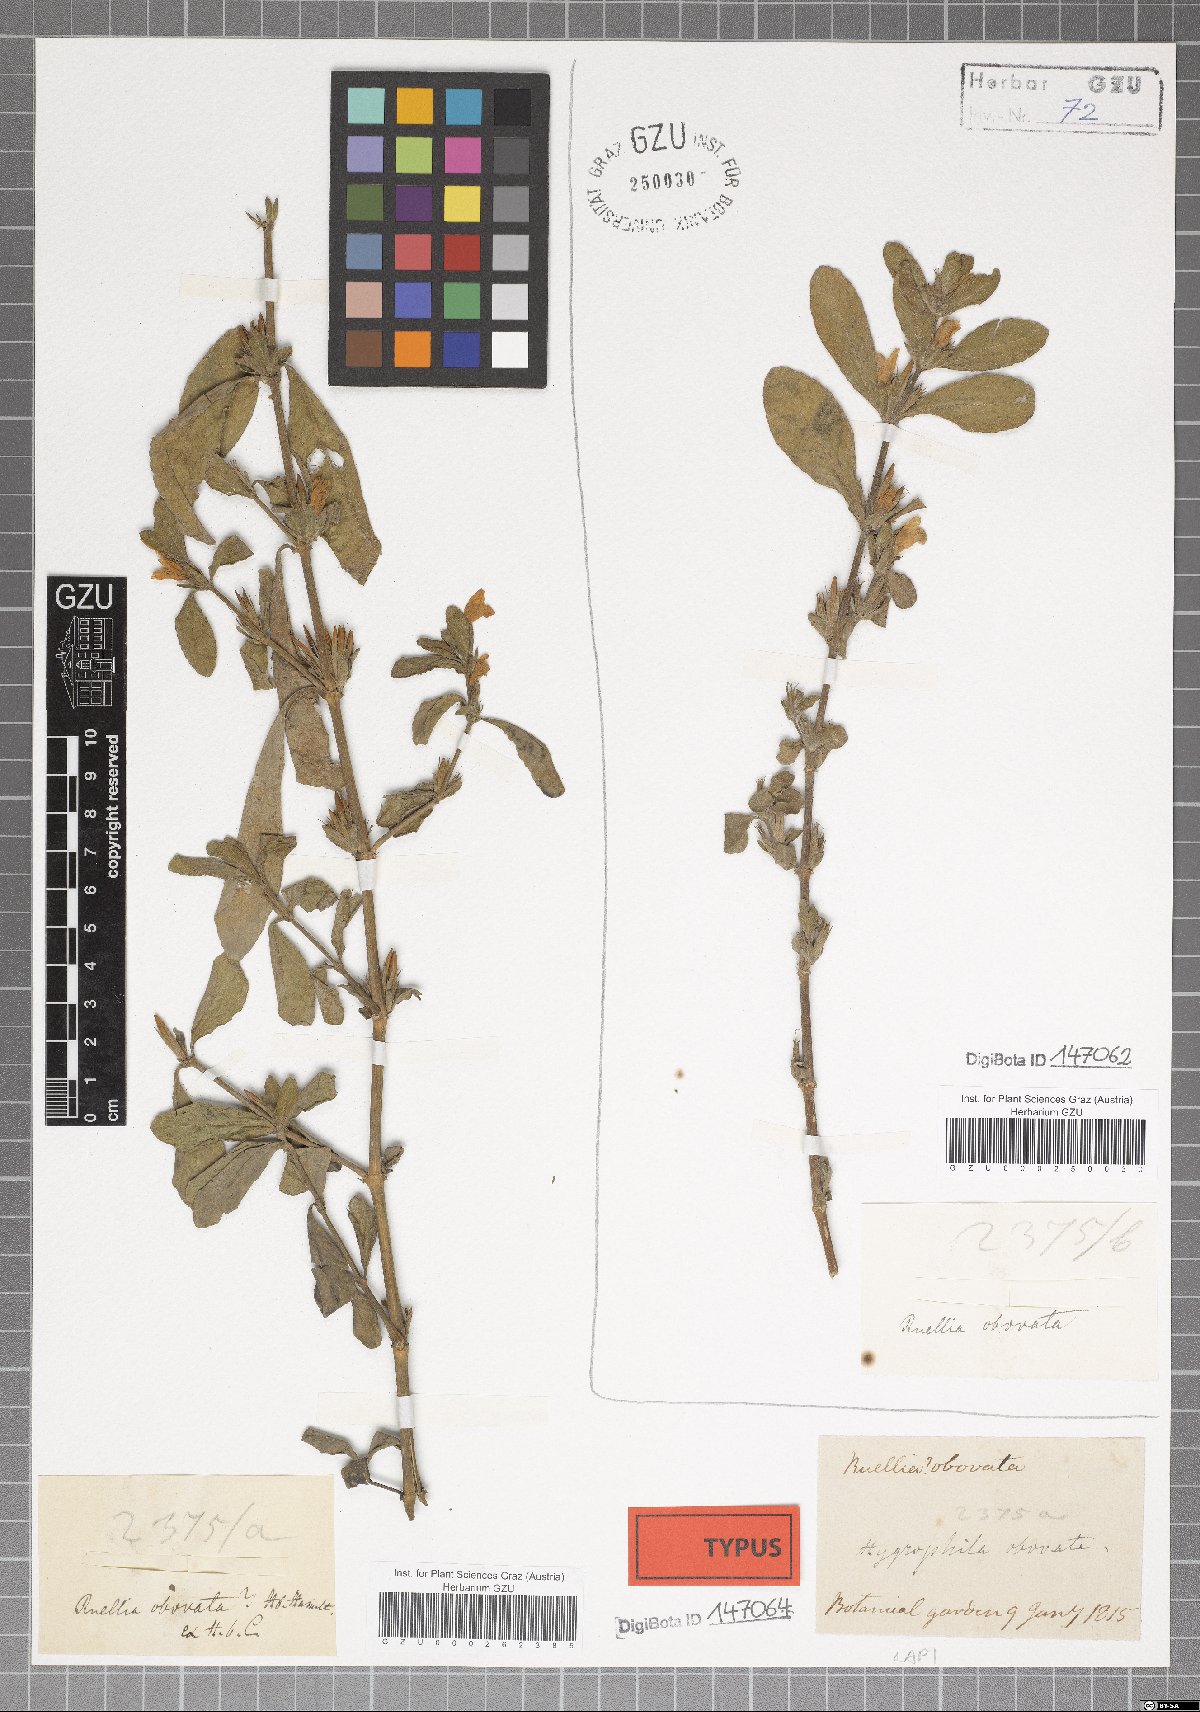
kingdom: Plantae
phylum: Tracheophyta
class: Magnoliopsida
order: Lamiales
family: Acanthaceae
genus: Hygrophila
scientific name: Hygrophila ringens
